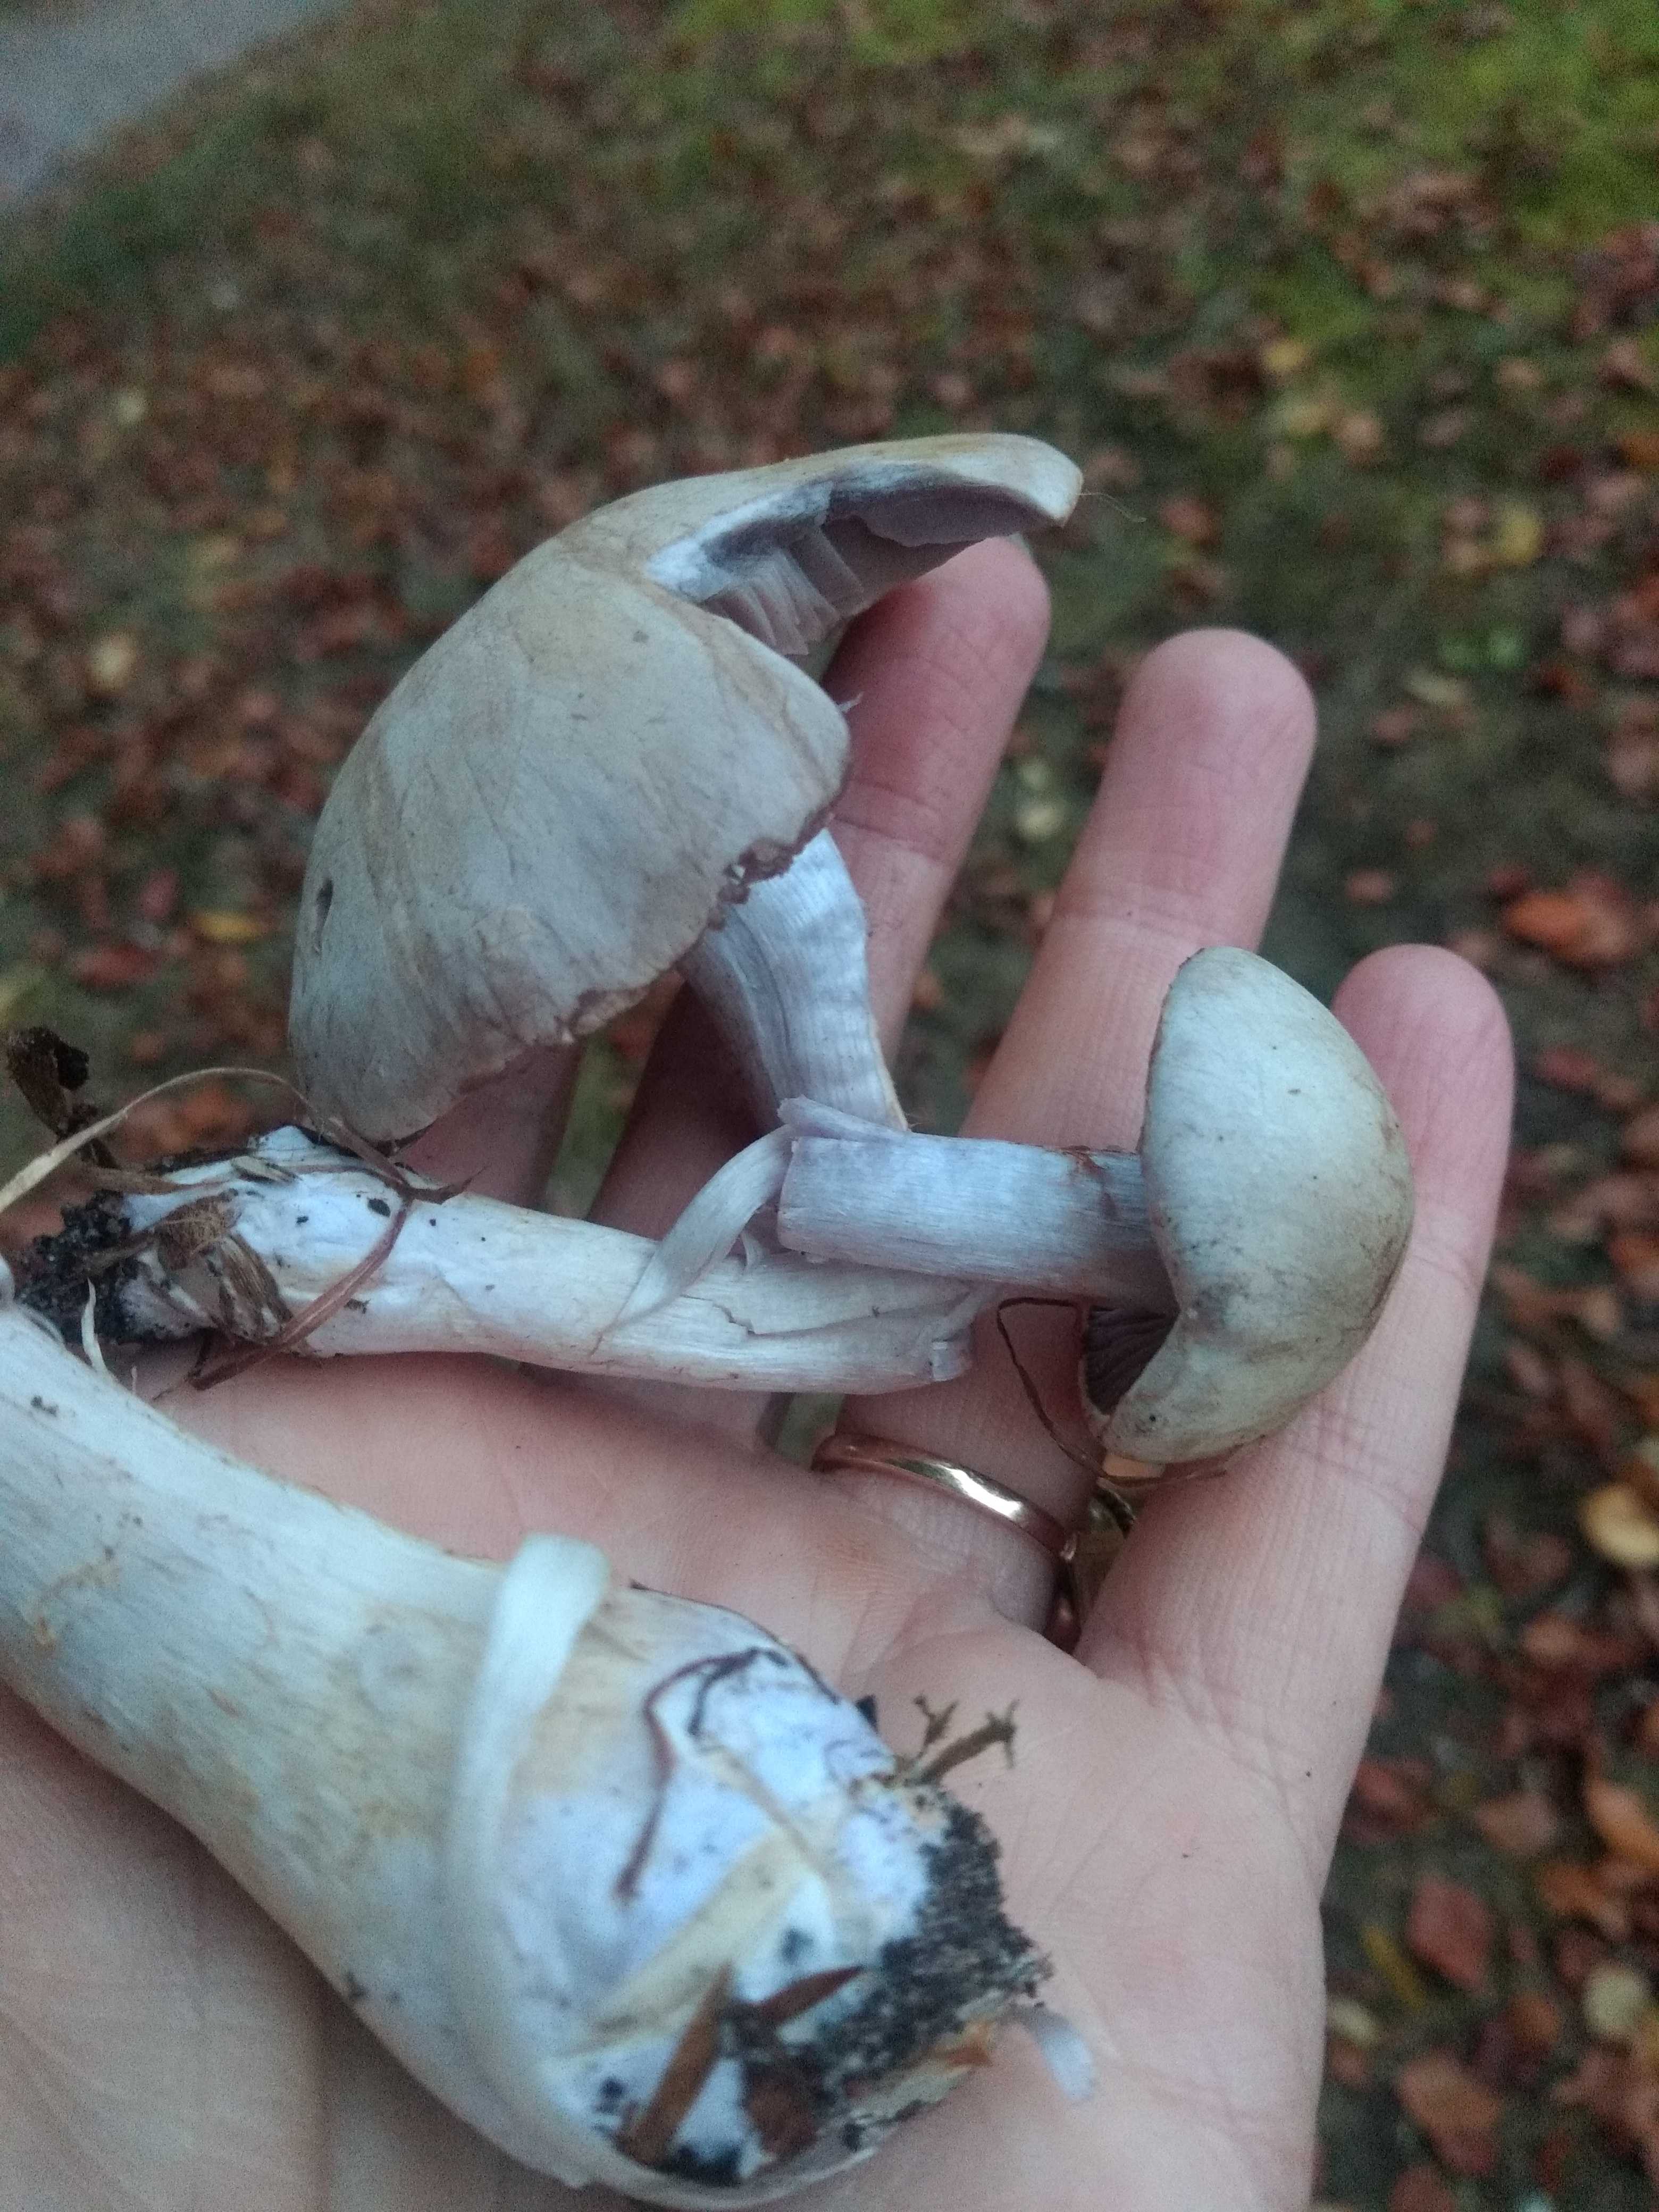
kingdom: Fungi
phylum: Basidiomycota
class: Agaricomycetes
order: Agaricales
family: Cortinariaceae
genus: Cortinarius
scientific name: Cortinarius
